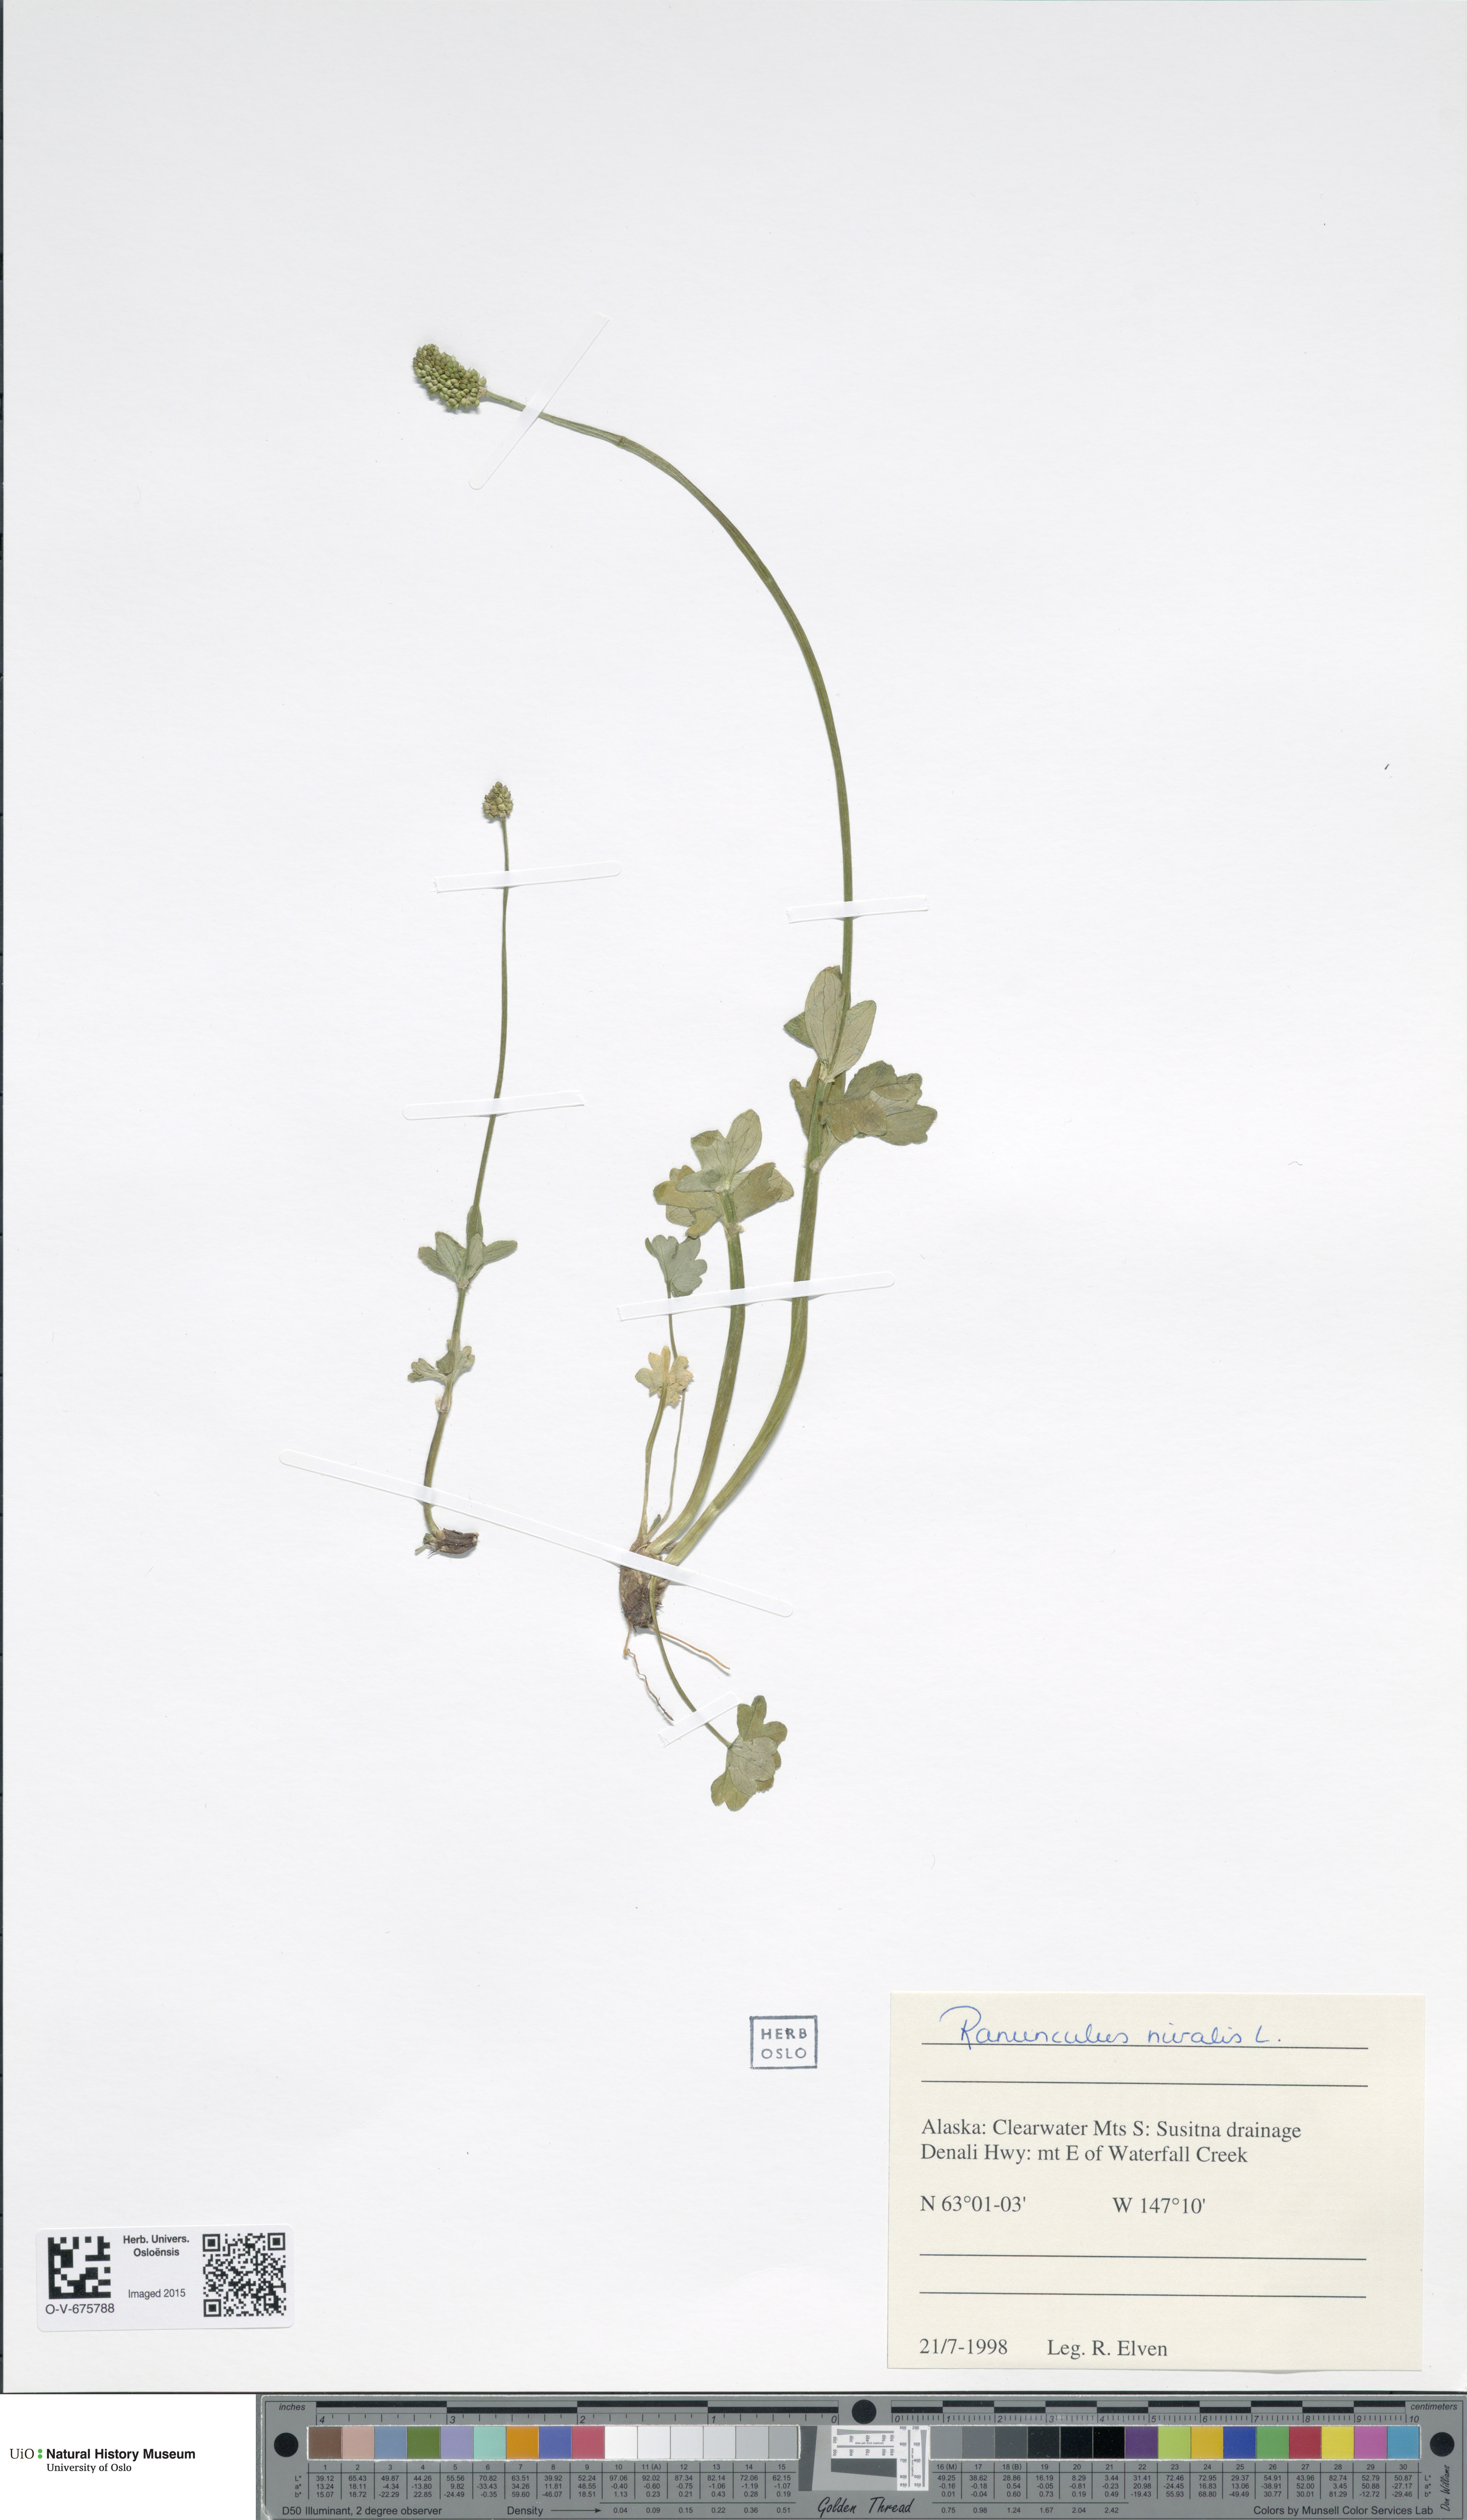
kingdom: Plantae
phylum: Tracheophyta
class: Magnoliopsida
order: Ranunculales
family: Ranunculaceae
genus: Ranunculus
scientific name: Ranunculus nivalis
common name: Snow buttercup
